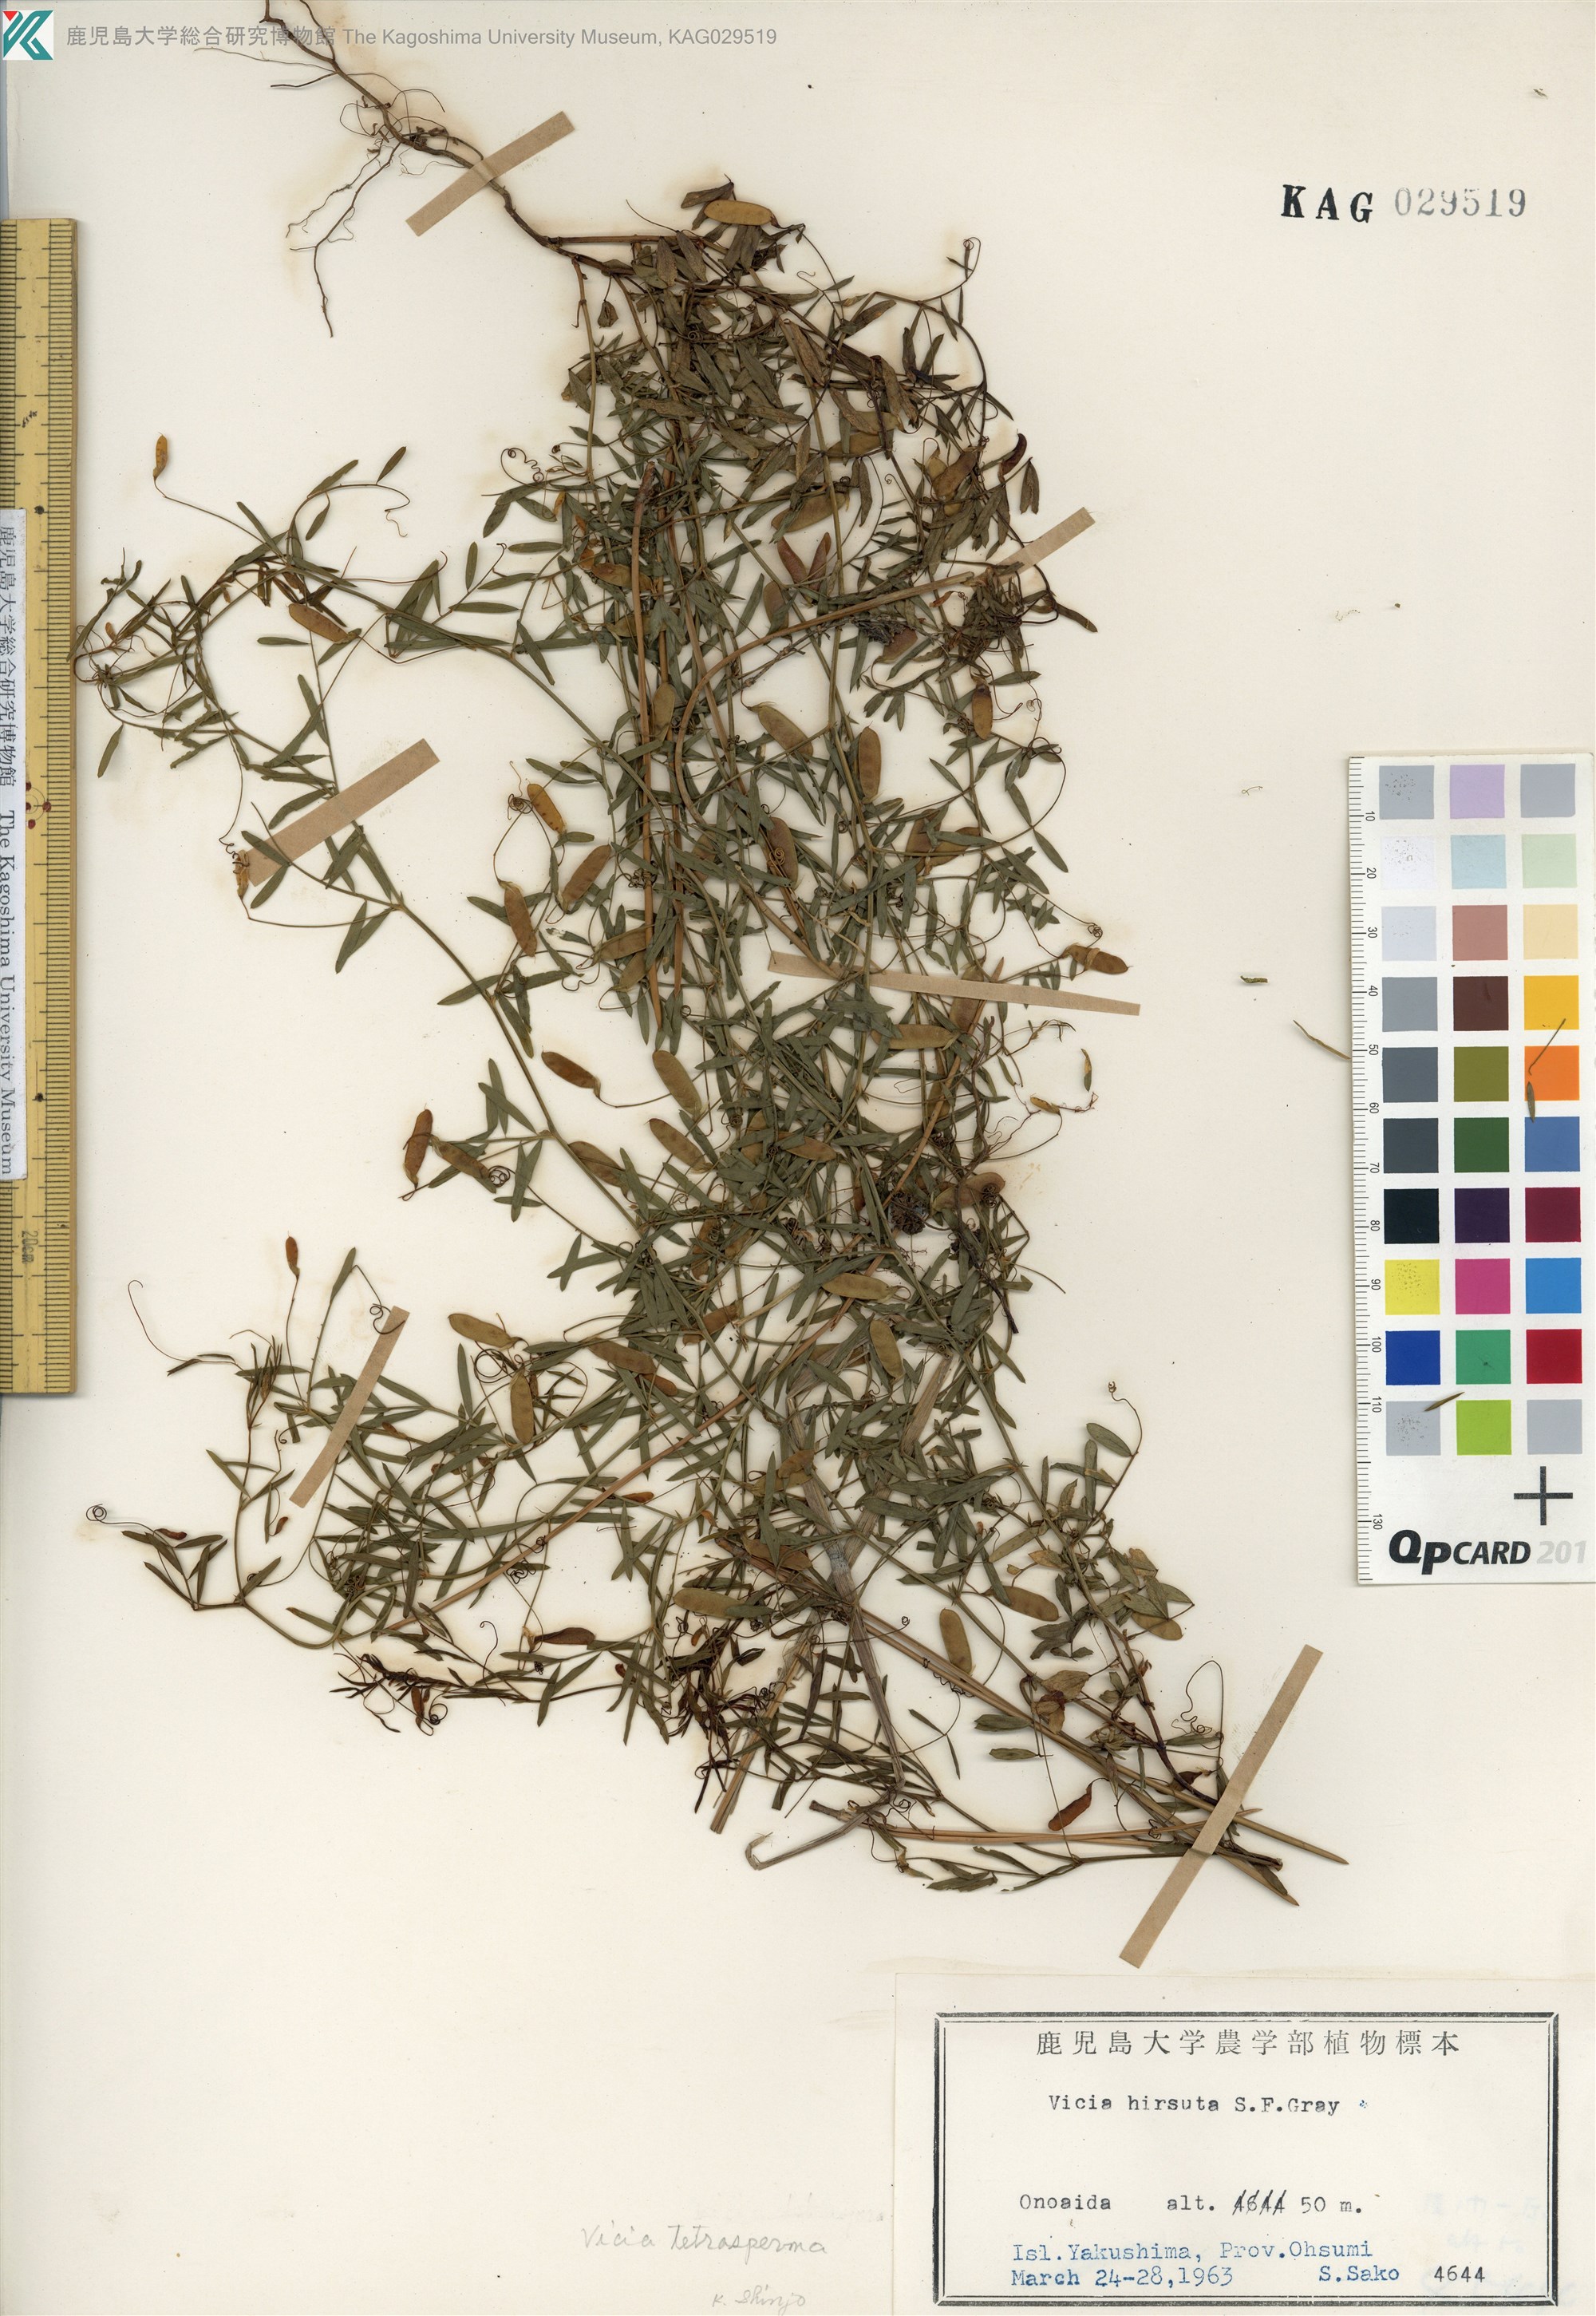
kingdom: Plantae
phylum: Tracheophyta
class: Magnoliopsida
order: Fabales
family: Fabaceae
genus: Vicia
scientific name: Vicia hirsuta
